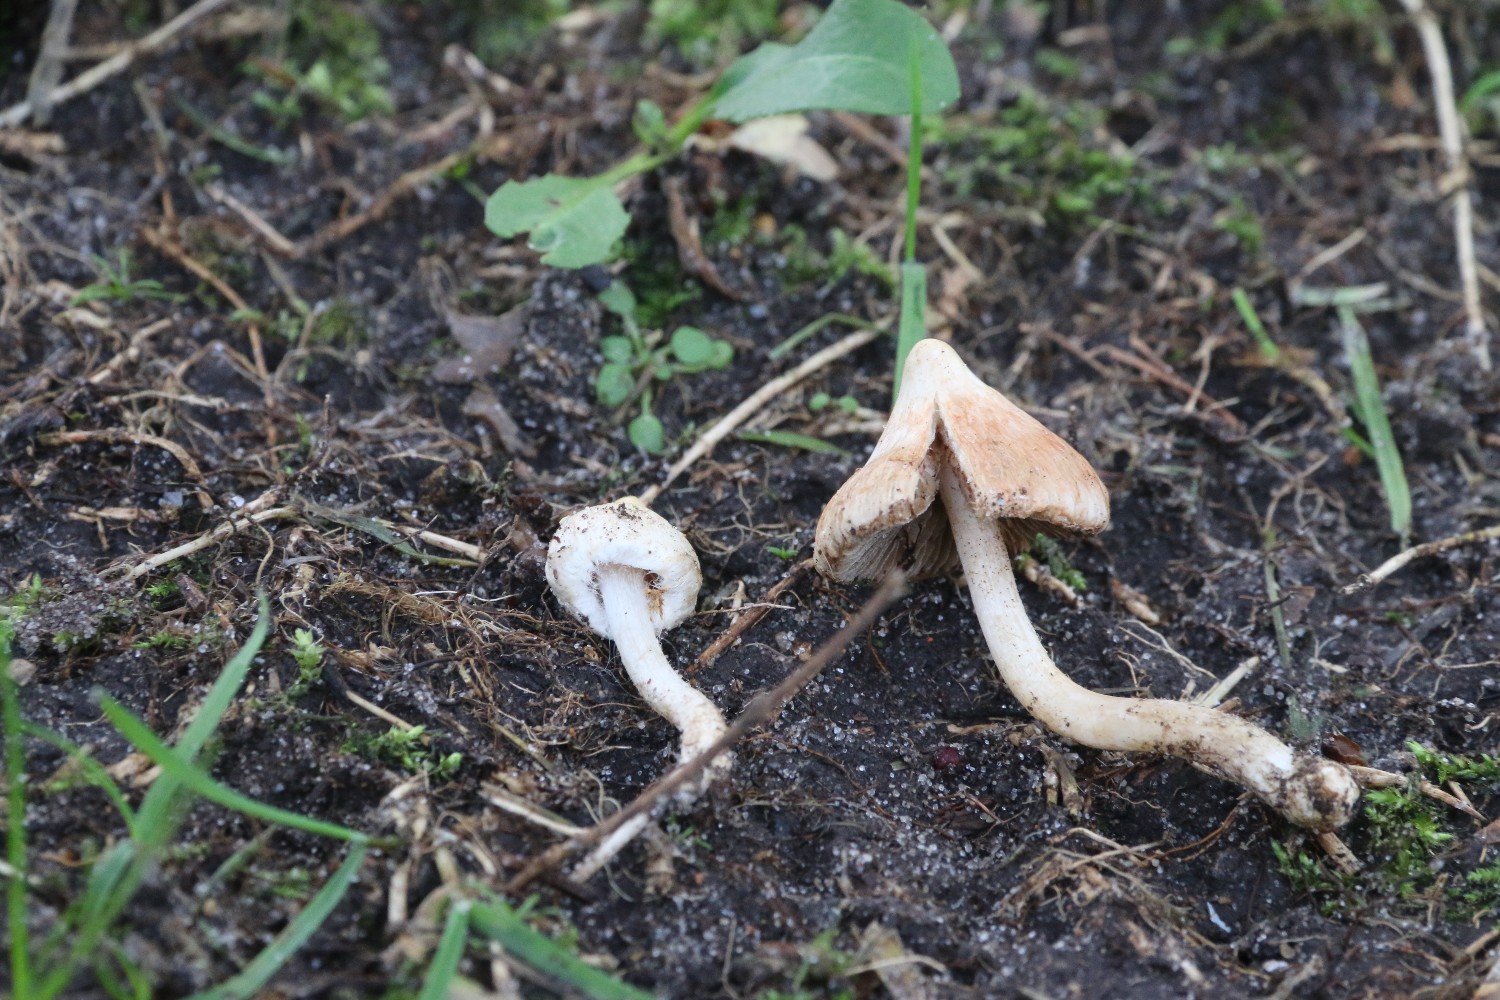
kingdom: Fungi
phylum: Basidiomycota
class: Agaricomycetes
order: Agaricales
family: Inocybaceae
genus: Inocybe
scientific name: Inocybe whitei
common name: rødmende trævlhat
